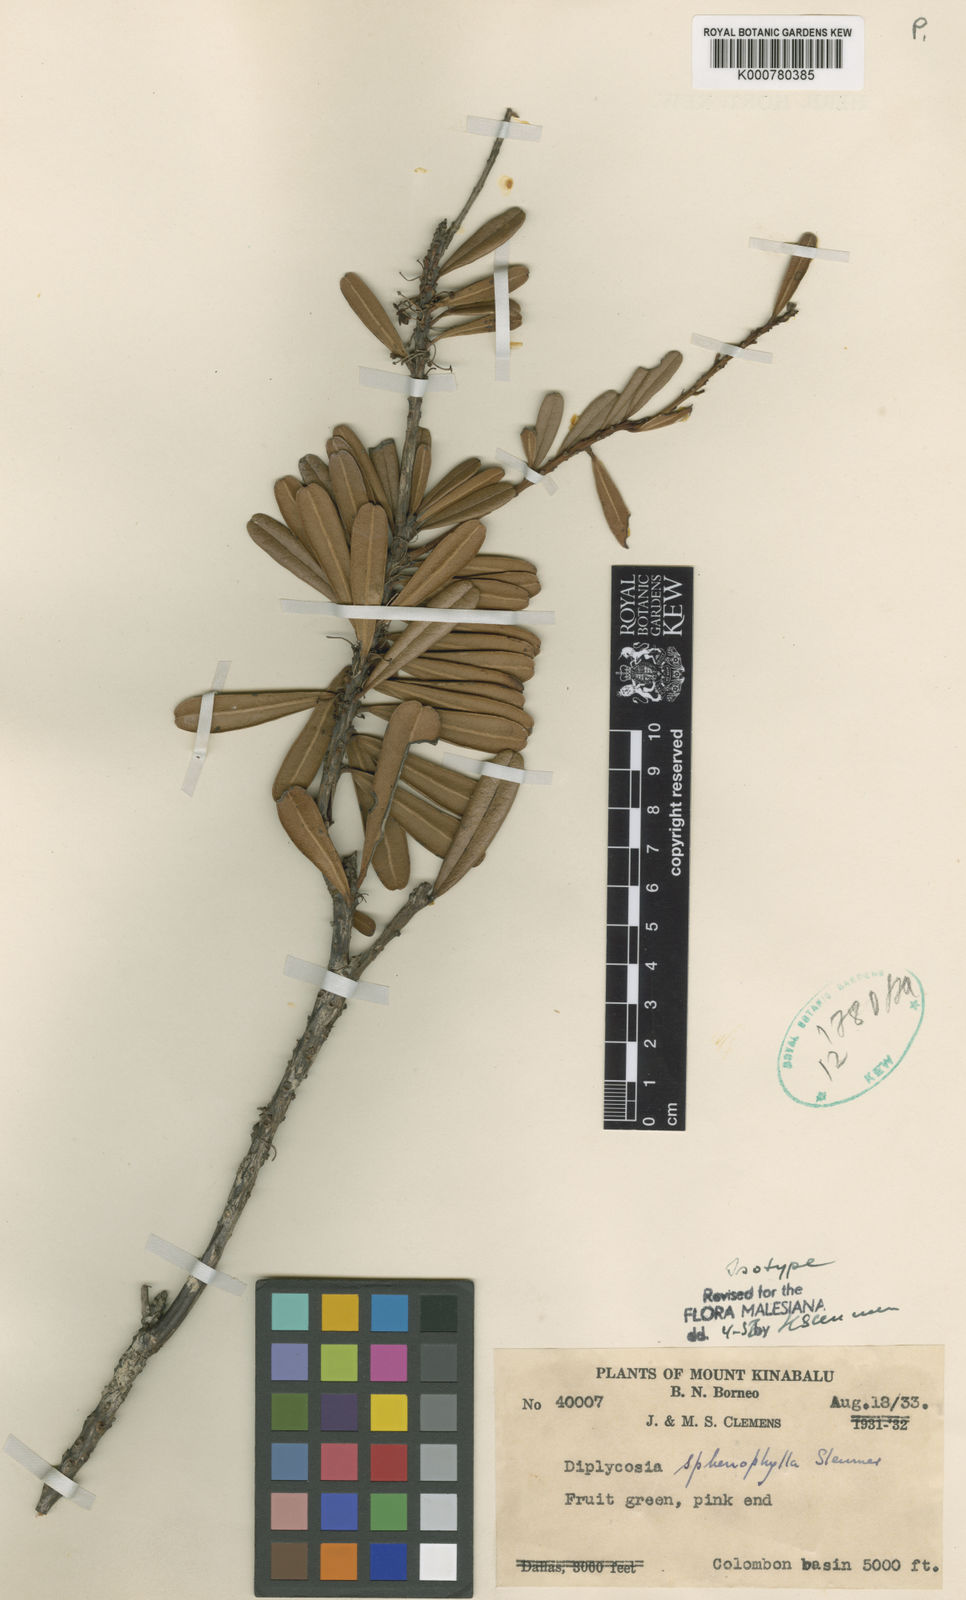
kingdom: Plantae
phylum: Tracheophyta
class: Magnoliopsida
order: Ericales
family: Ericaceae
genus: Gaultheria
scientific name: Gaultheria sphenophylla
